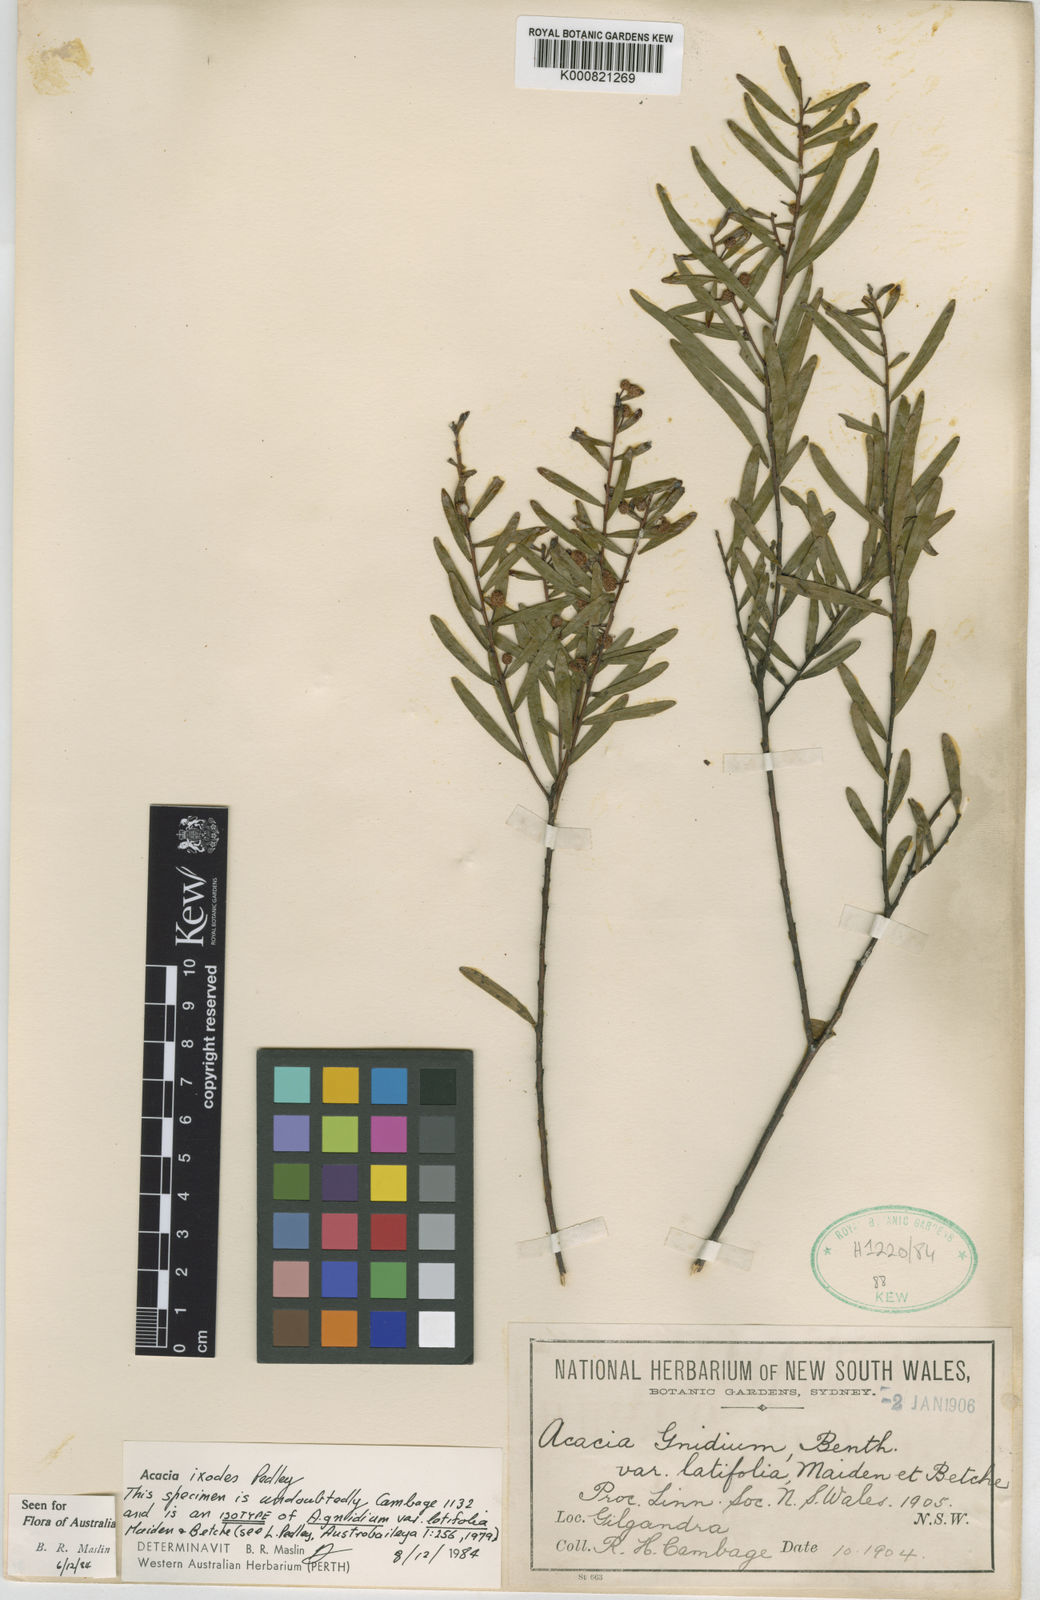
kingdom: Plantae
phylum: Tracheophyta
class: Magnoliopsida
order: Fabales
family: Fabaceae
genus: Acacia
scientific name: Acacia ixodes
